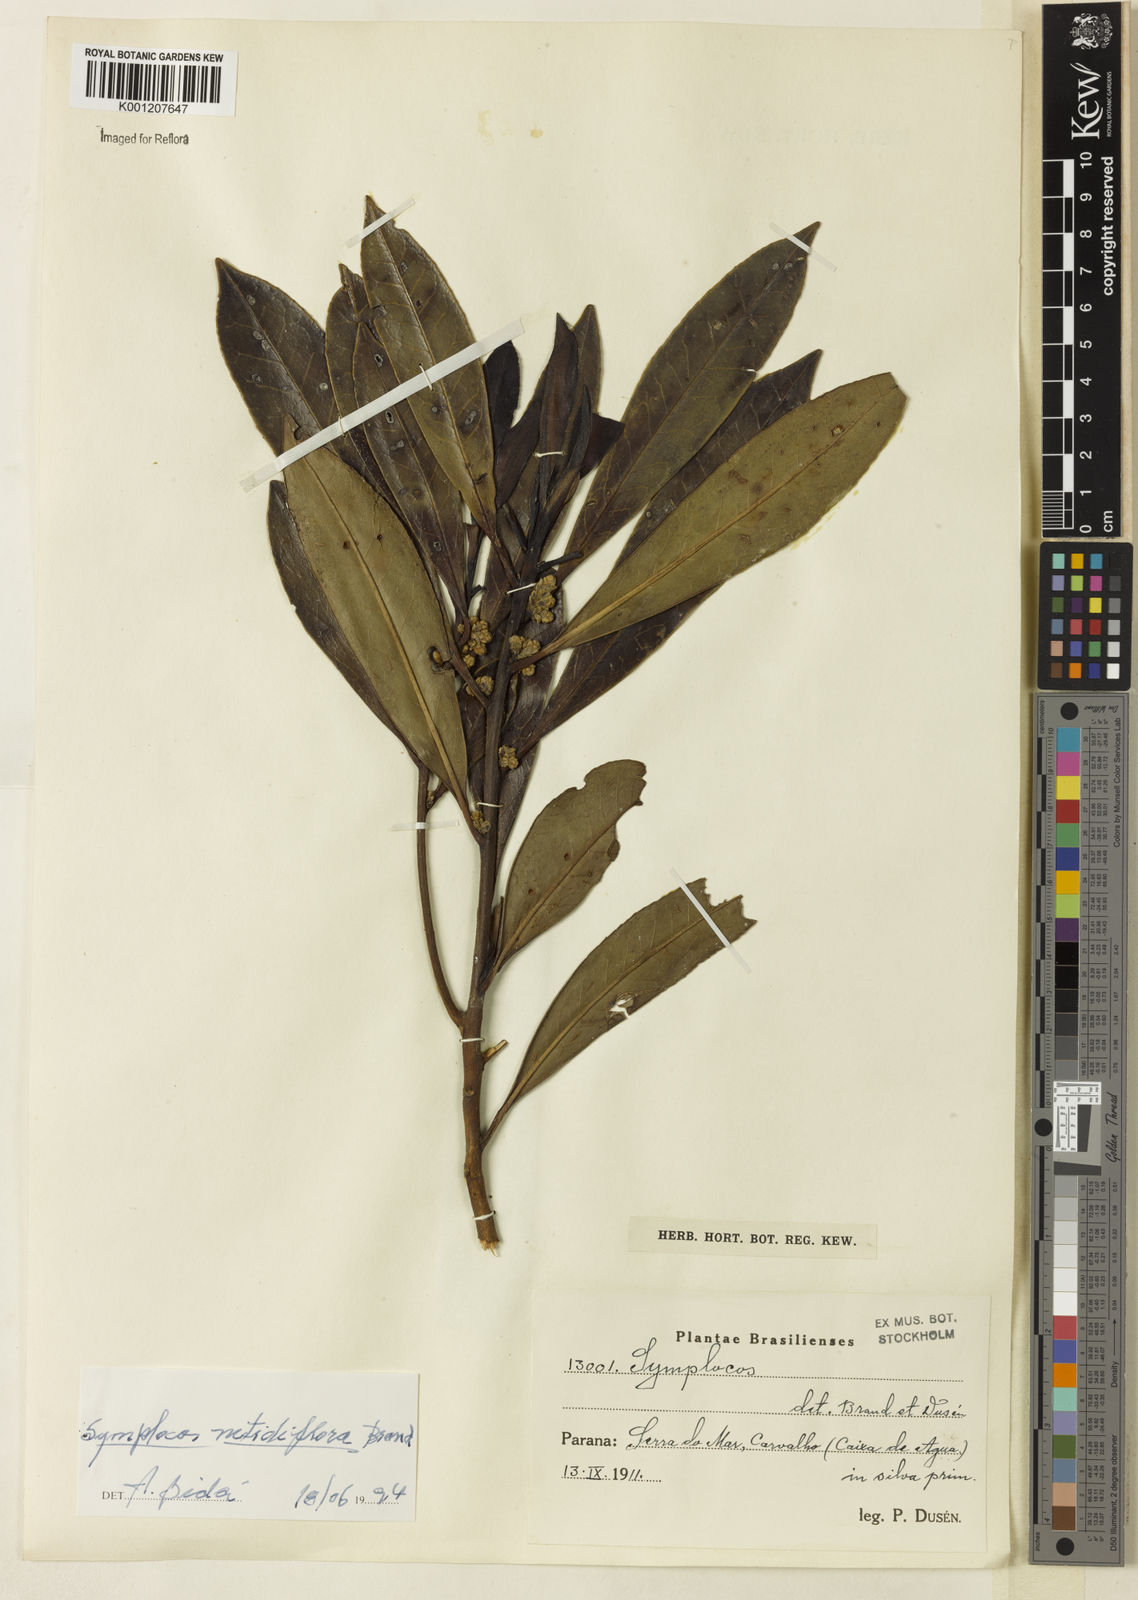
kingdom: Plantae
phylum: Tracheophyta
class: Magnoliopsida
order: Ericales
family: Symplocaceae
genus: Symplocos
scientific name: Symplocos nitidiflora
